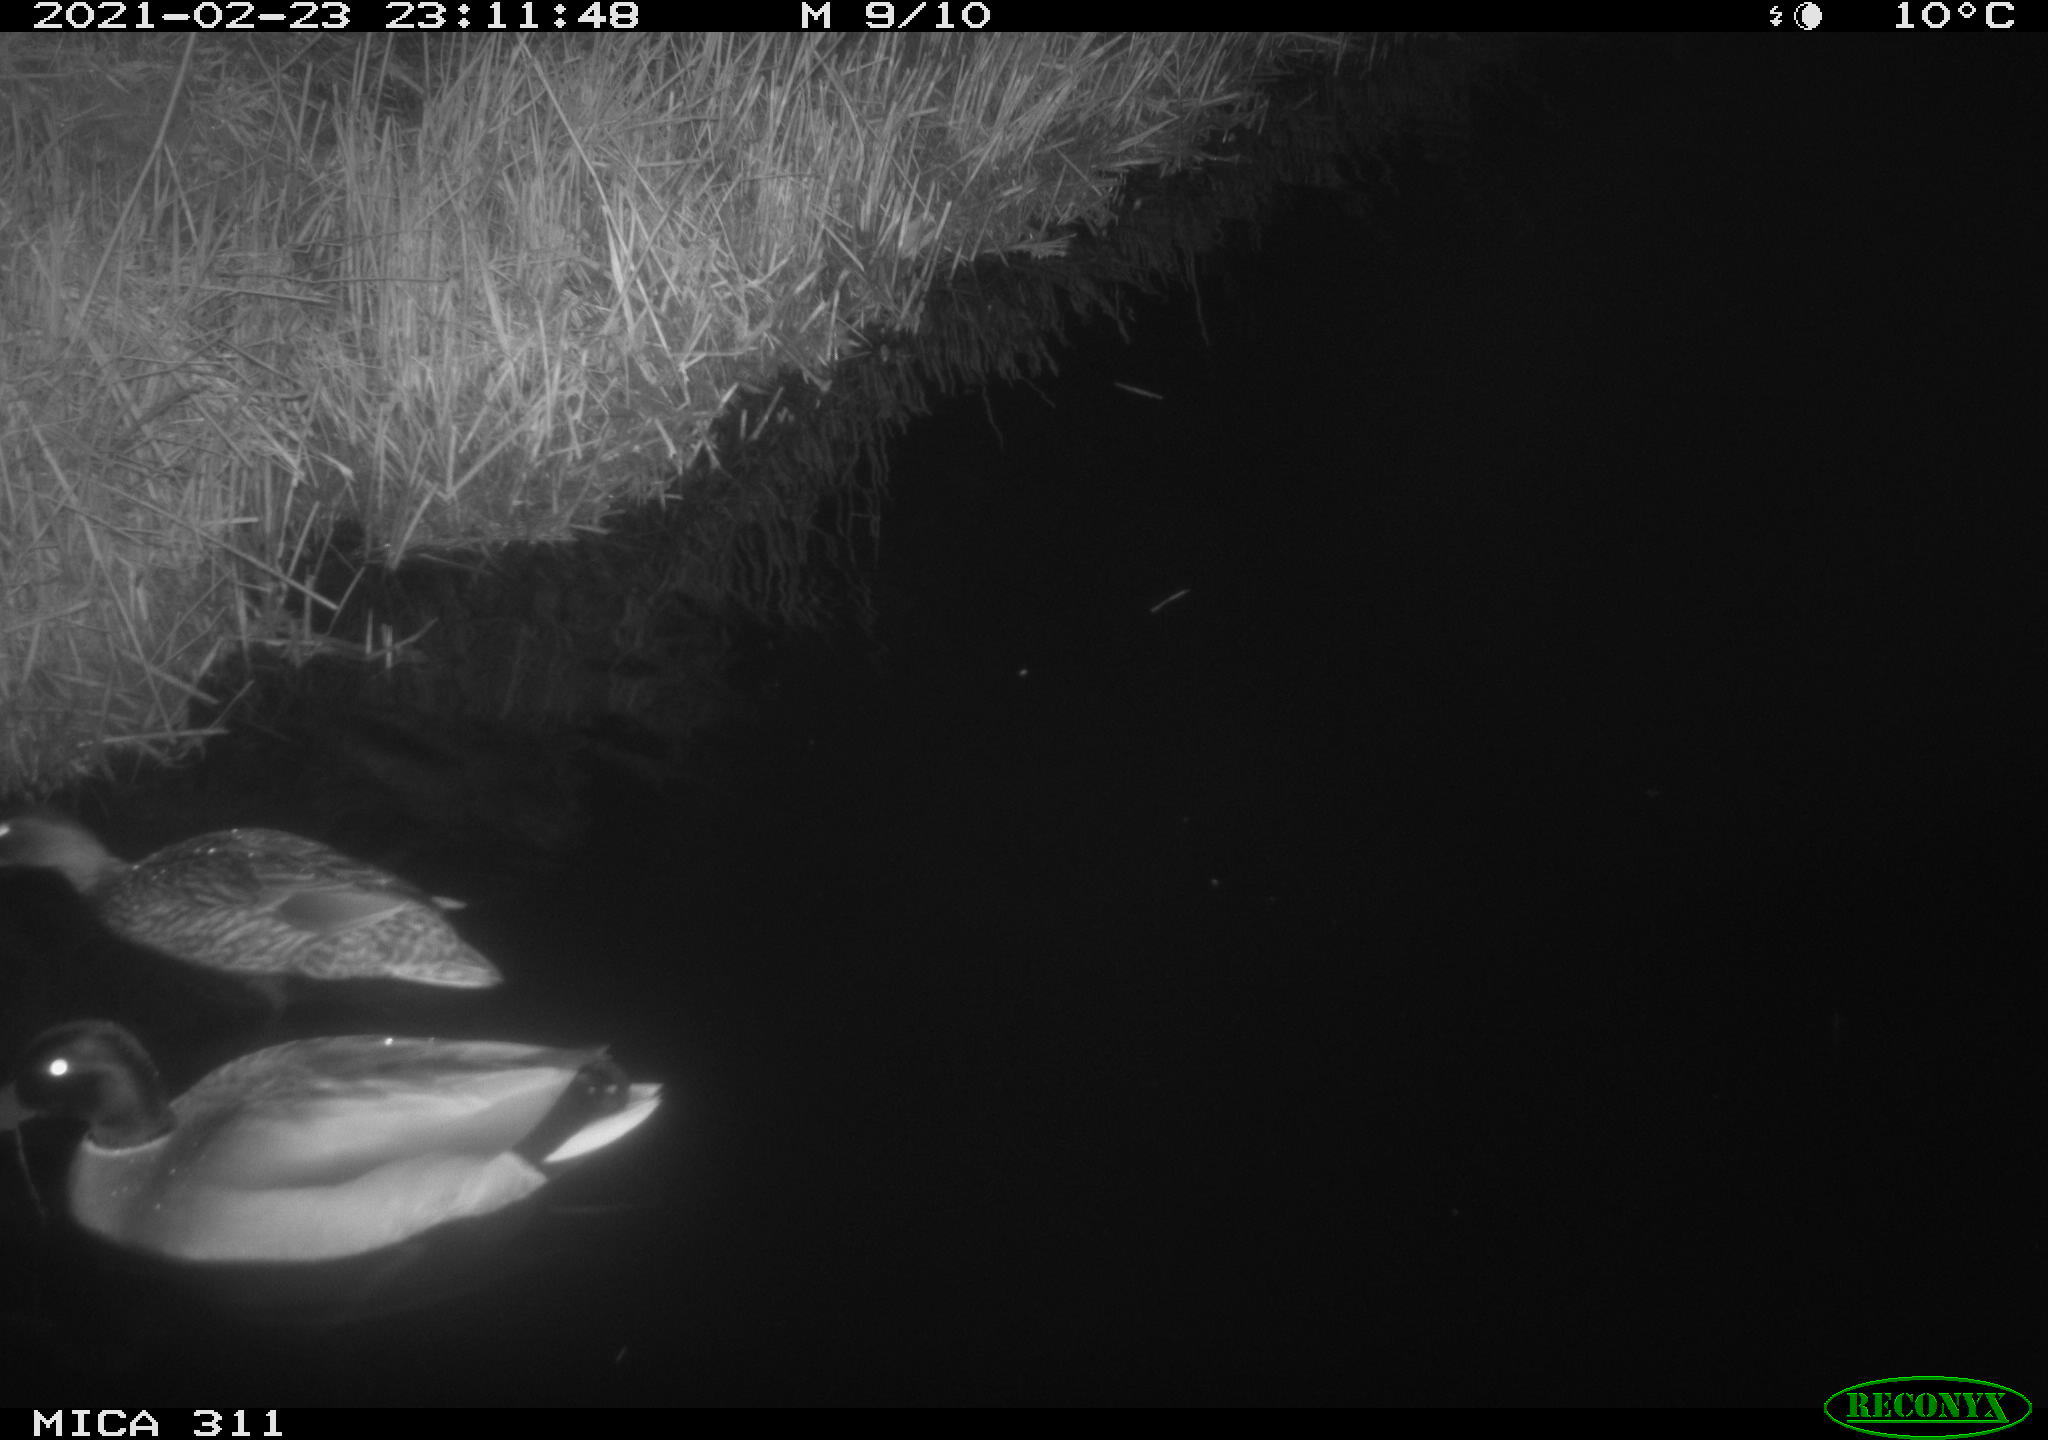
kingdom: Animalia
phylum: Chordata
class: Aves
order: Anseriformes
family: Anatidae
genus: Anas
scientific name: Anas
